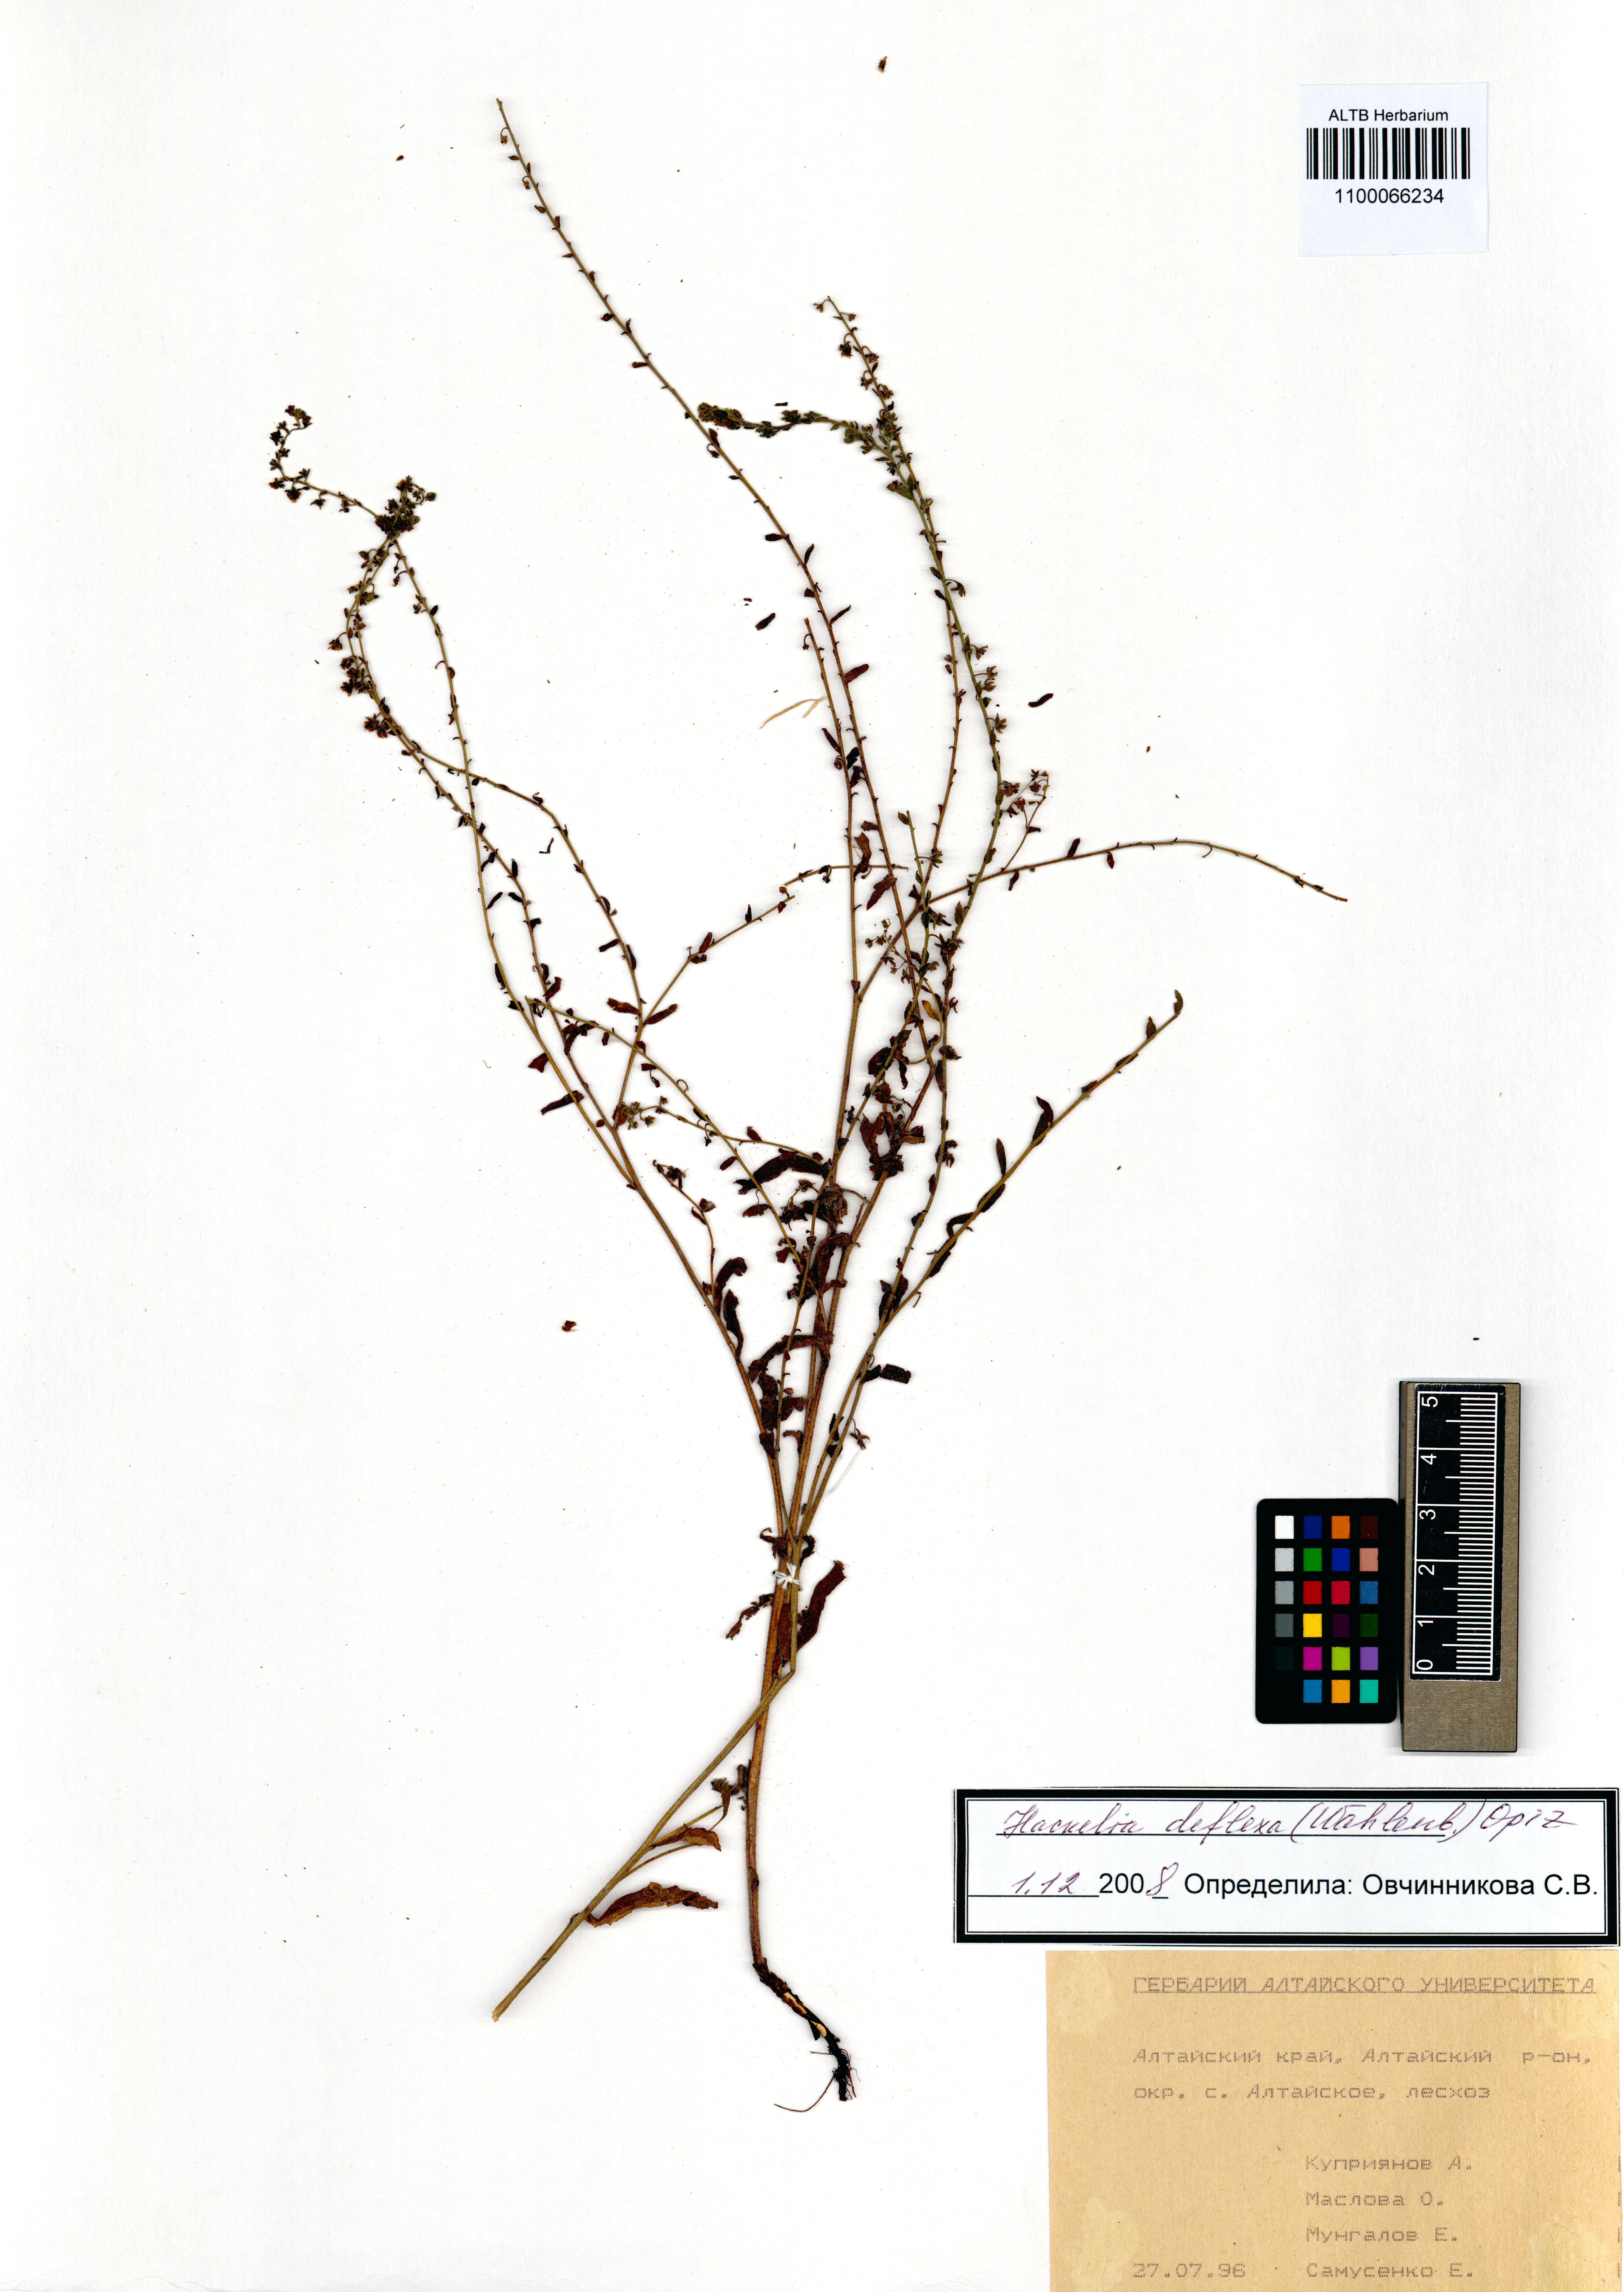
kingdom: Plantae
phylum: Tracheophyta
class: Magnoliopsida
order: Boraginales
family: Boraginaceae
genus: Hackelia
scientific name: Hackelia deflexa
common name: Nodding stickseed
